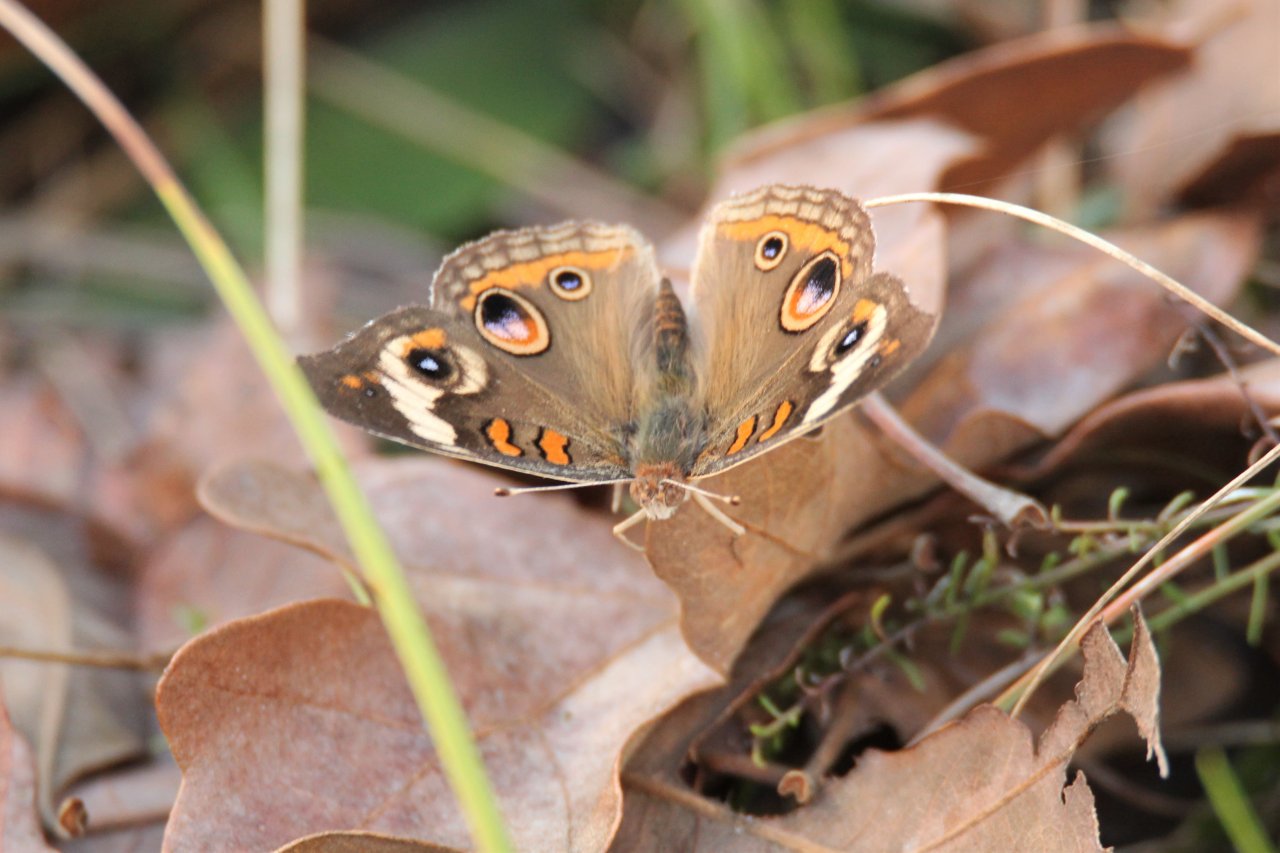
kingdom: Animalia
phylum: Arthropoda
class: Insecta
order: Lepidoptera
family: Nymphalidae
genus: Junonia
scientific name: Junonia coenia
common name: Common Buckeye
